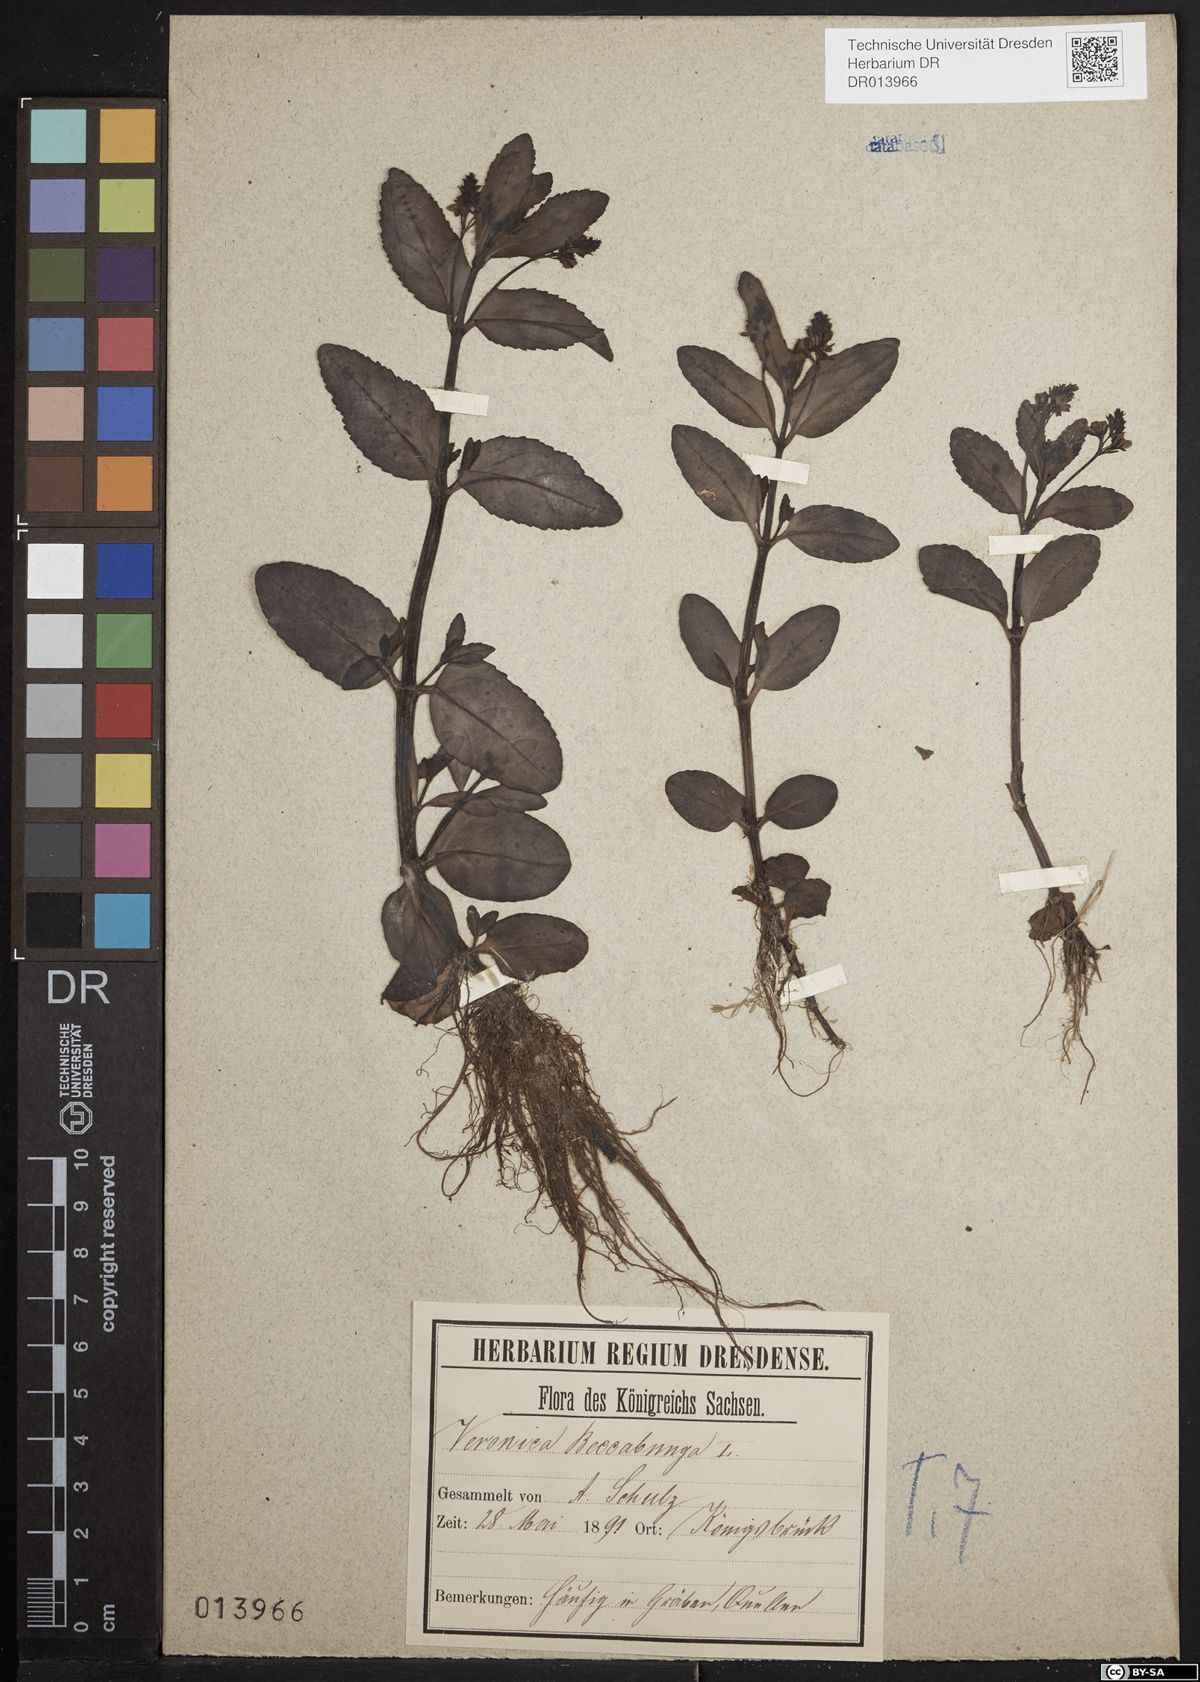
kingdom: Plantae
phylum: Tracheophyta
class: Magnoliopsida
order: Lamiales
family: Plantaginaceae
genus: Veronica
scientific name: Veronica beccabunga
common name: Brooklime
